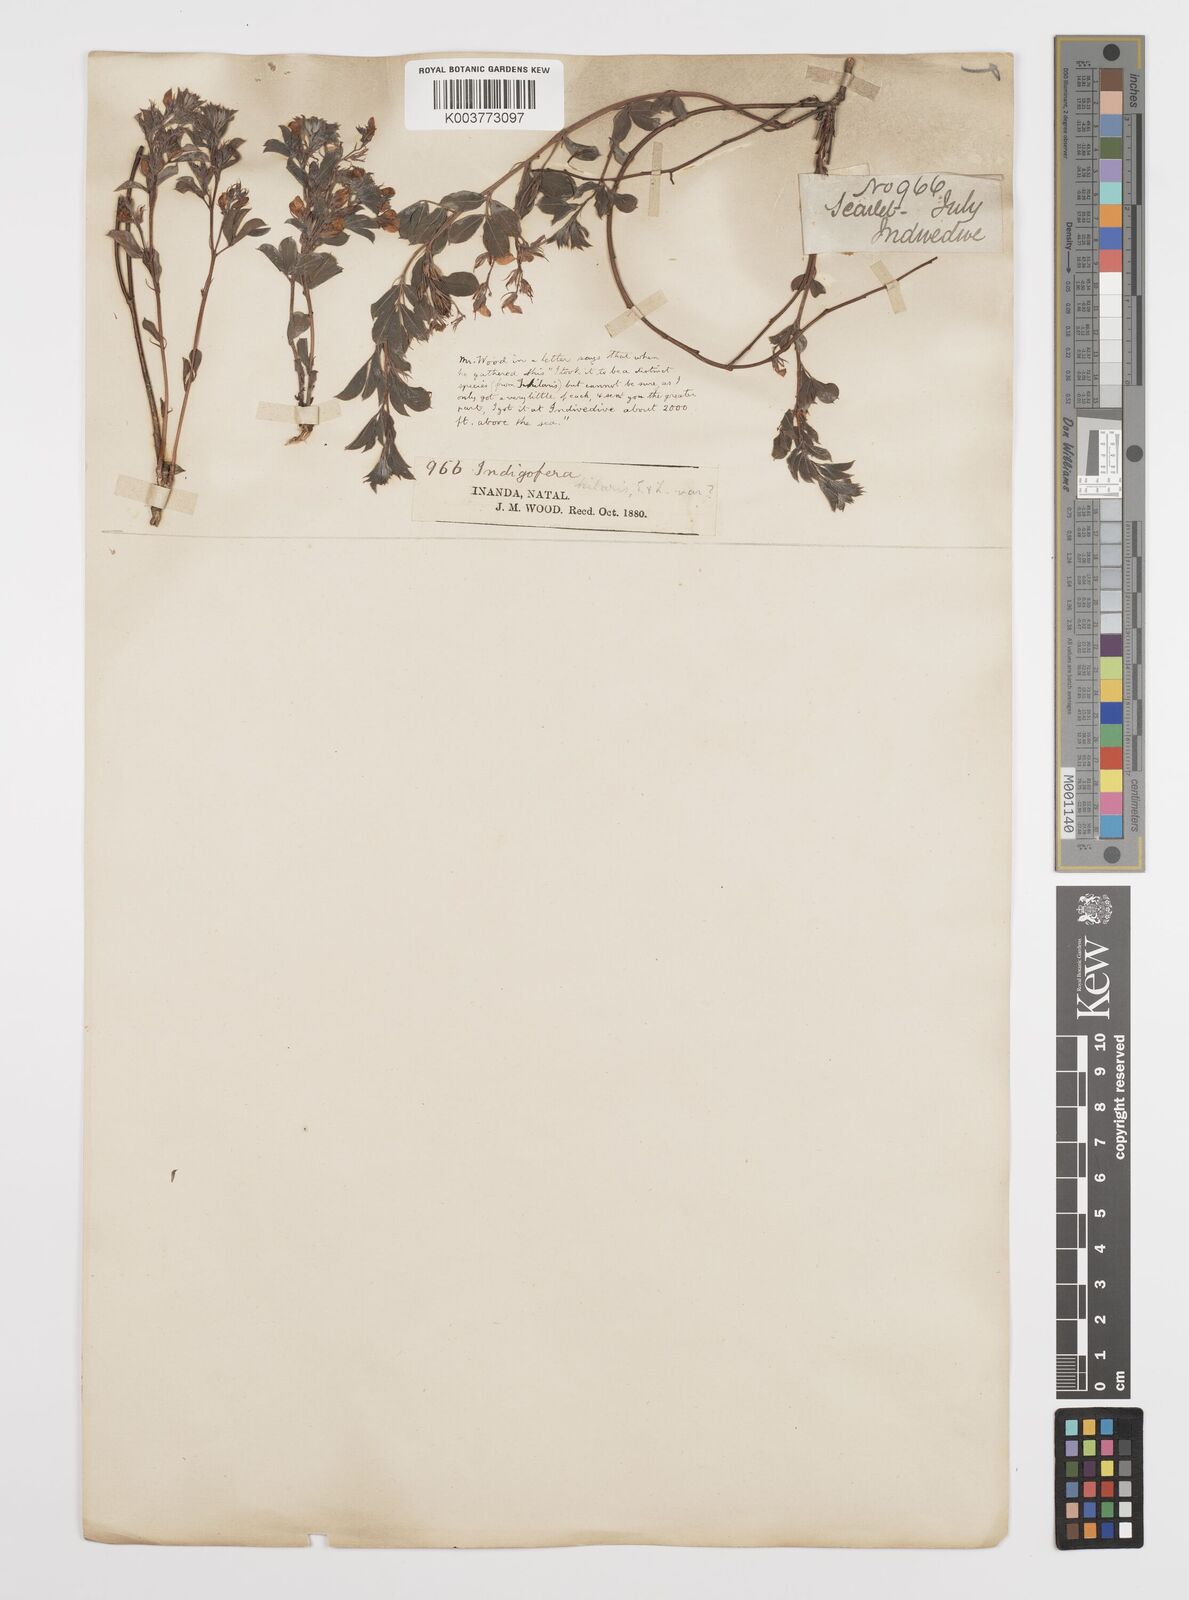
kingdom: Plantae
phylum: Tracheophyta
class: Magnoliopsida
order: Fabales
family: Fabaceae
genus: Indigofera
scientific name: Indigofera
